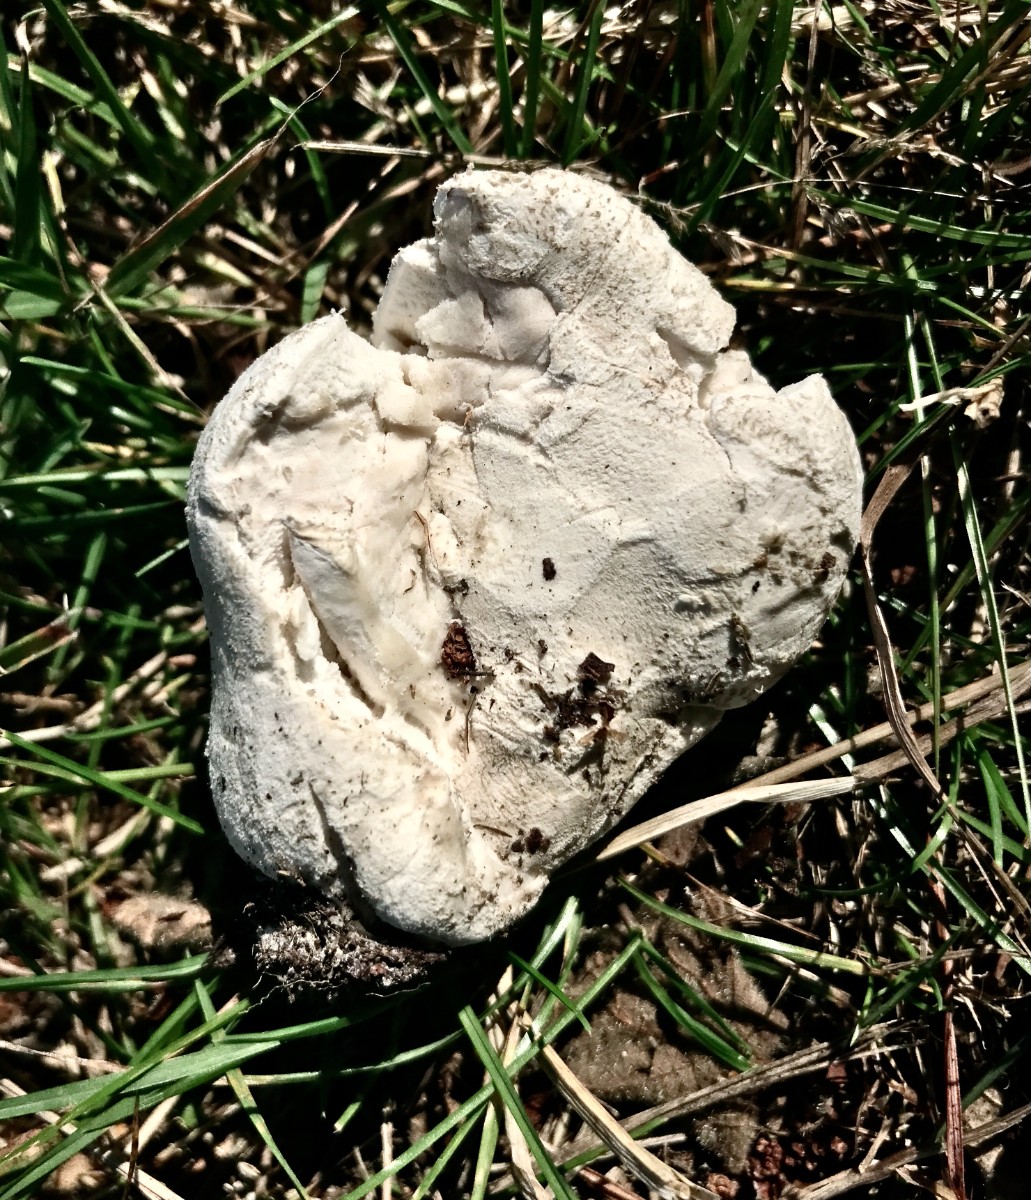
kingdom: Fungi
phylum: Basidiomycota
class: Agaricomycetes
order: Agaricales
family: Agaricaceae
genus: Lycoperdon
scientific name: Lycoperdon
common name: støvbold
